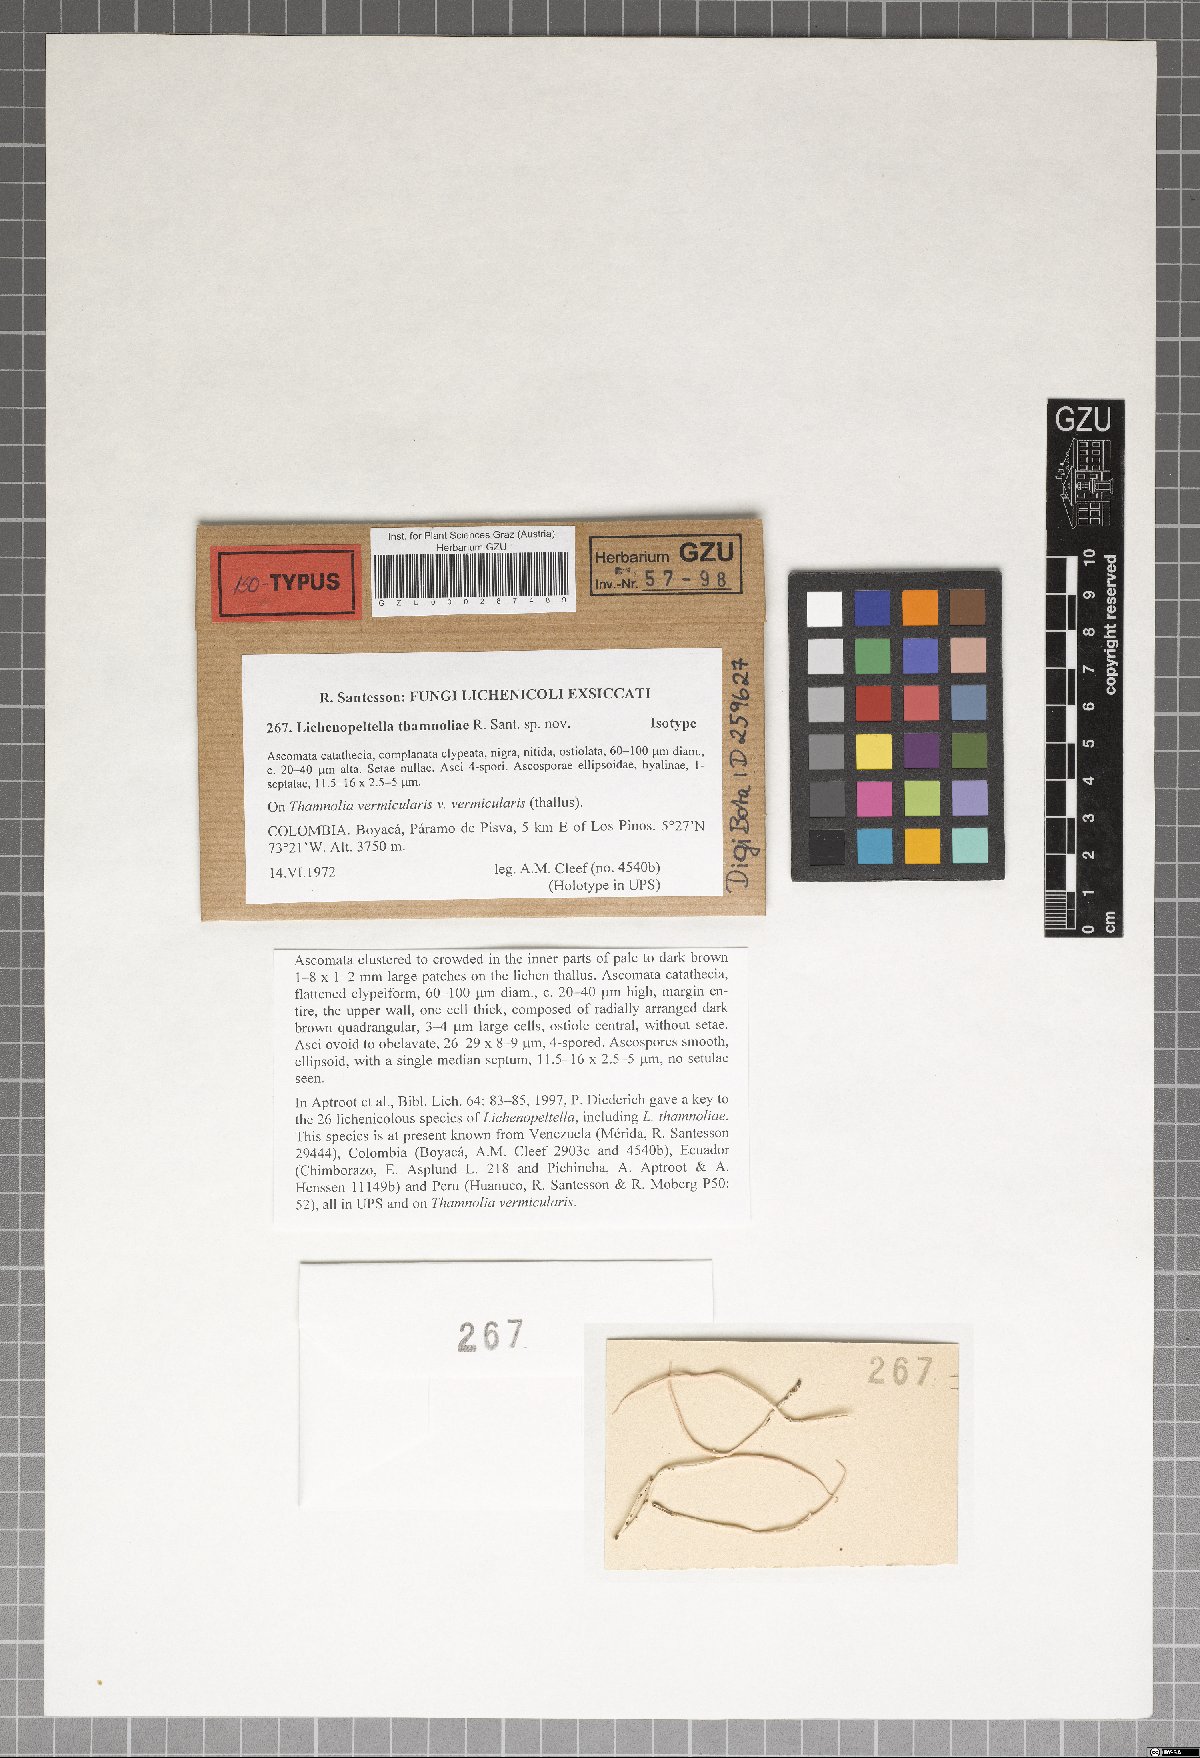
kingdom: Fungi
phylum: Ascomycota
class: Dothideomycetes
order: Microthyriales
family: Microthyriaceae
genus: Lichenopeltella
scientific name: Lichenopeltella thamnoliae
